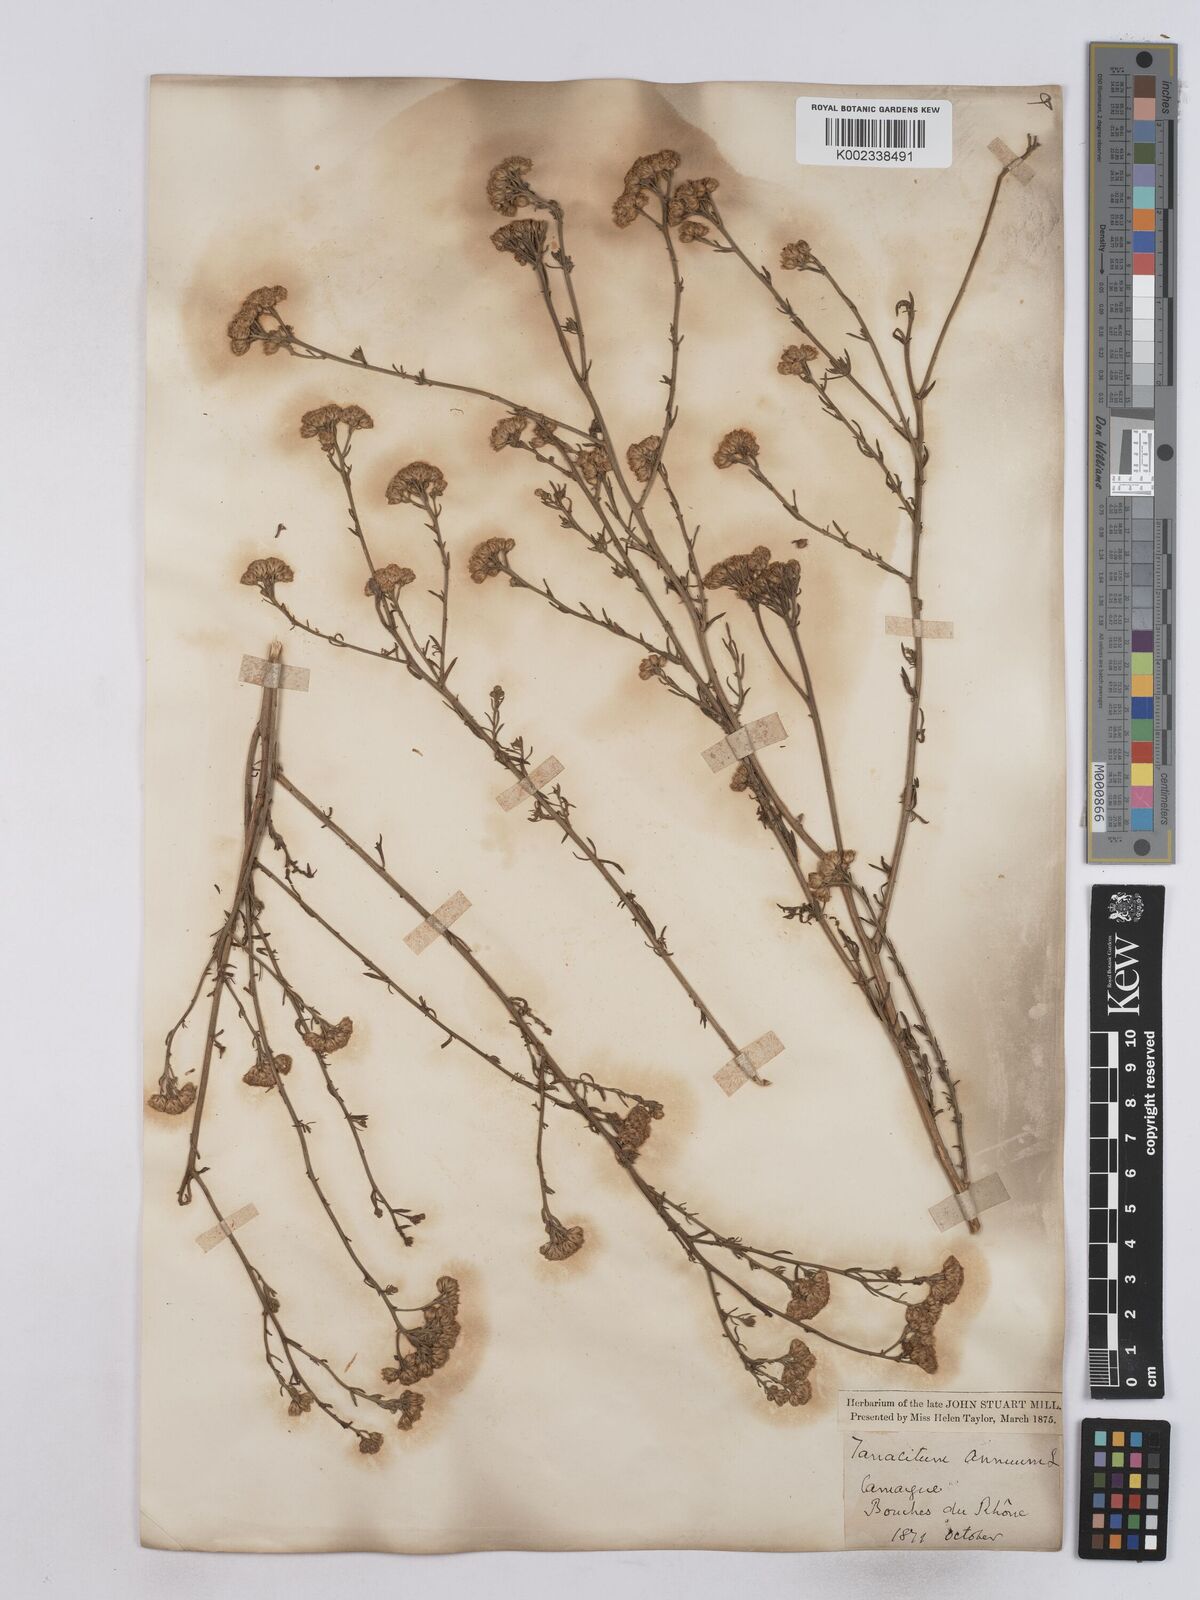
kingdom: Plantae
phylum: Tracheophyta
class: Magnoliopsida
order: Asterales
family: Asteraceae
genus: Vogtia
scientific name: Vogtia annua
